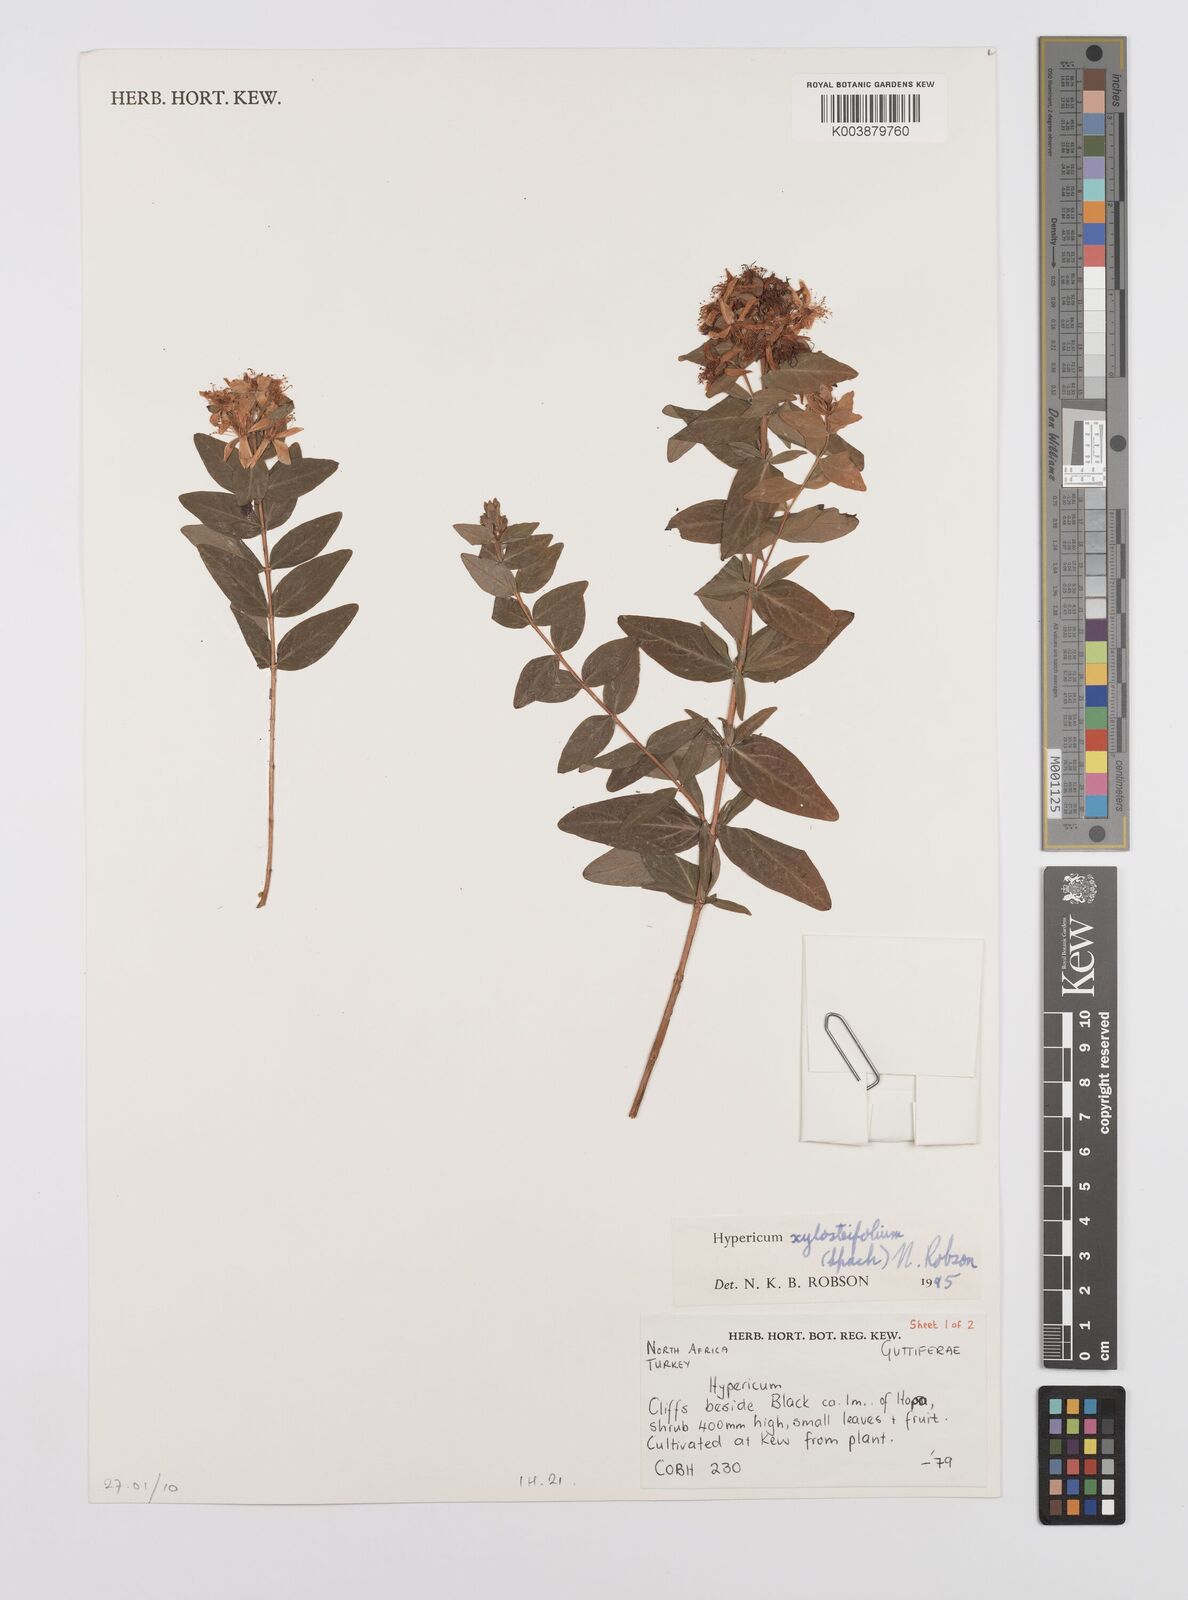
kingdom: Plantae
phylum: Tracheophyta
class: Magnoliopsida
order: Malpighiales
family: Hypericaceae
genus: Hypericum
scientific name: Hypericum xylosteifolium
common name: Turkish tutsan
